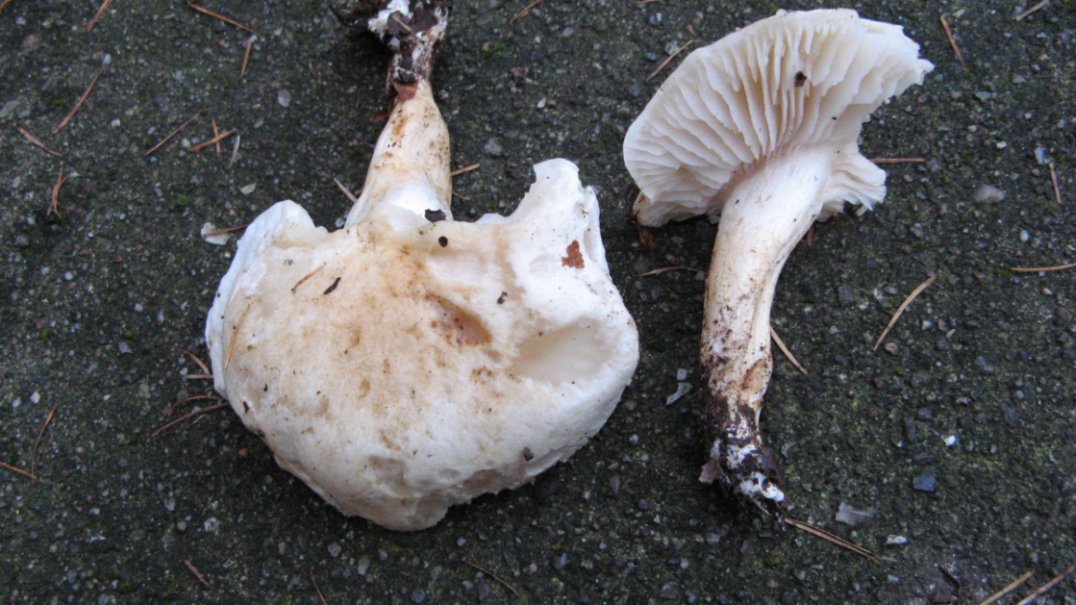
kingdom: Fungi
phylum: Basidiomycota
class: Agaricomycetes
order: Agaricales
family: Tricholomataceae
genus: Tricholoma
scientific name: Tricholoma lascivum
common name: stinkende ridderhat
